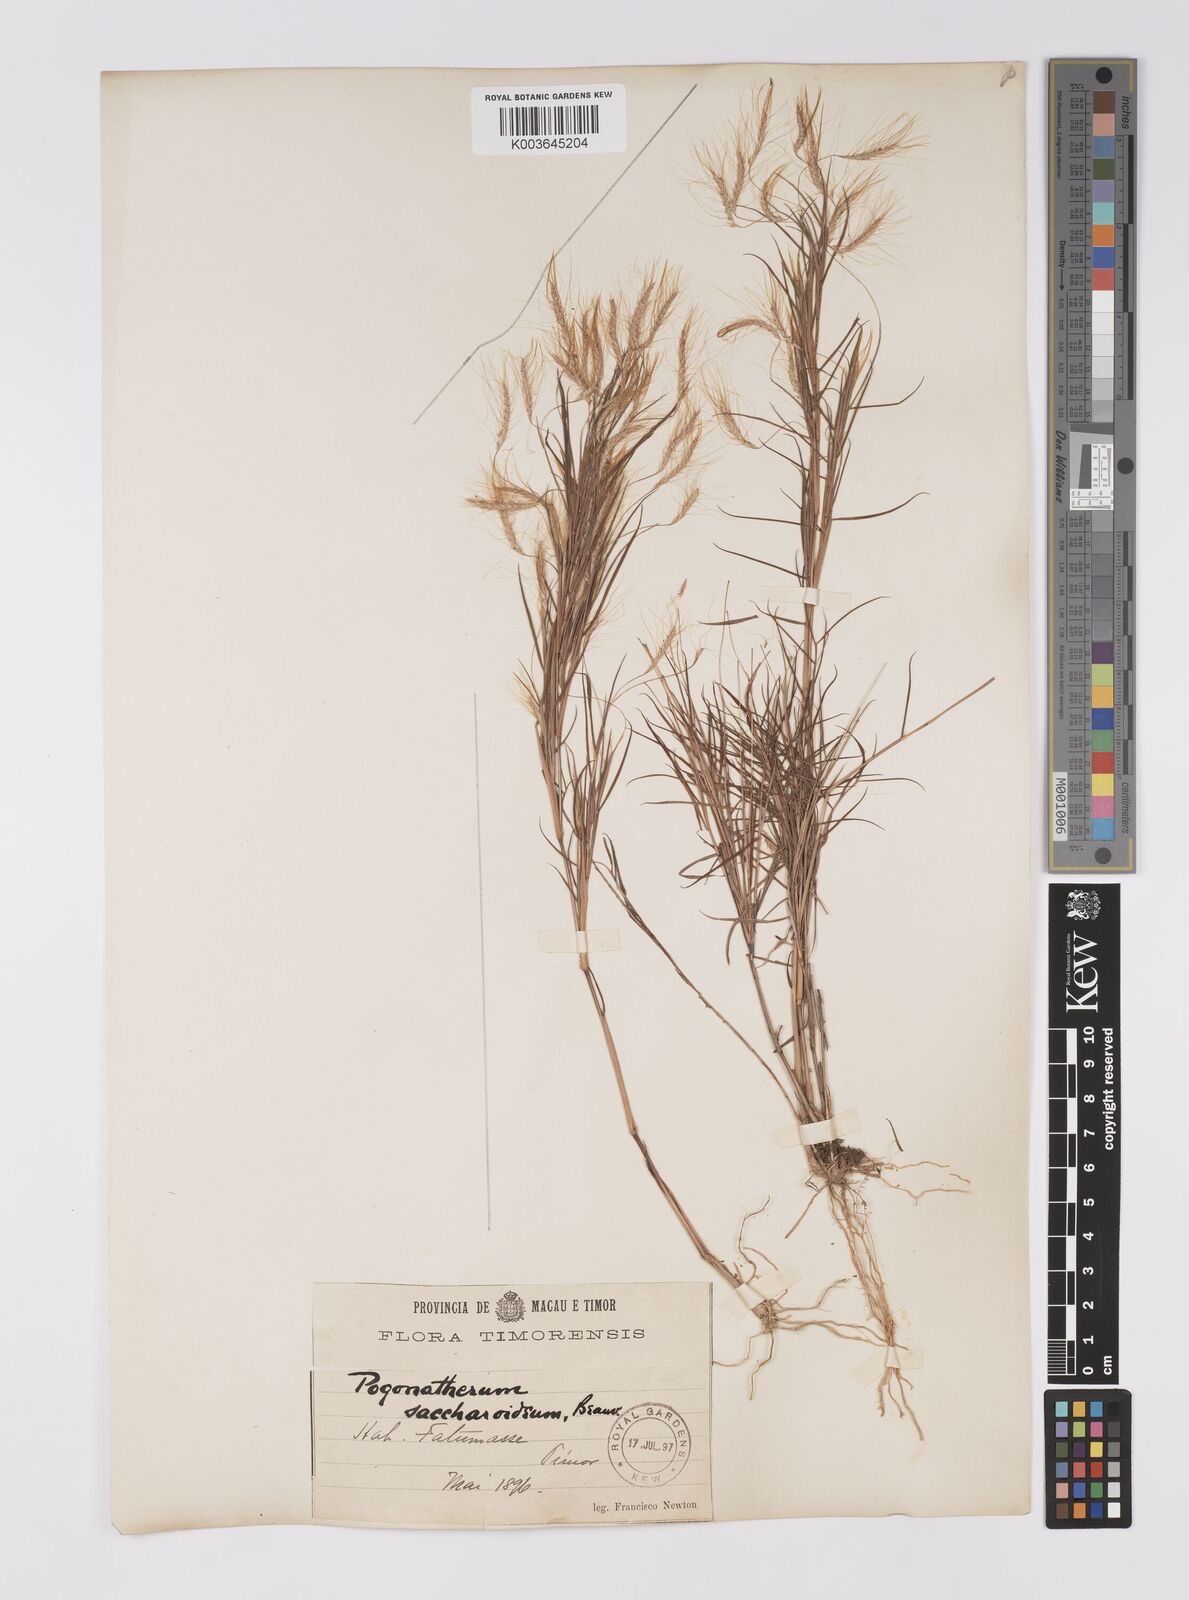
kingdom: Plantae
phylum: Tracheophyta
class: Liliopsida
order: Poales
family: Poaceae
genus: Pogonatherum
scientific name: Pogonatherum paniceum
